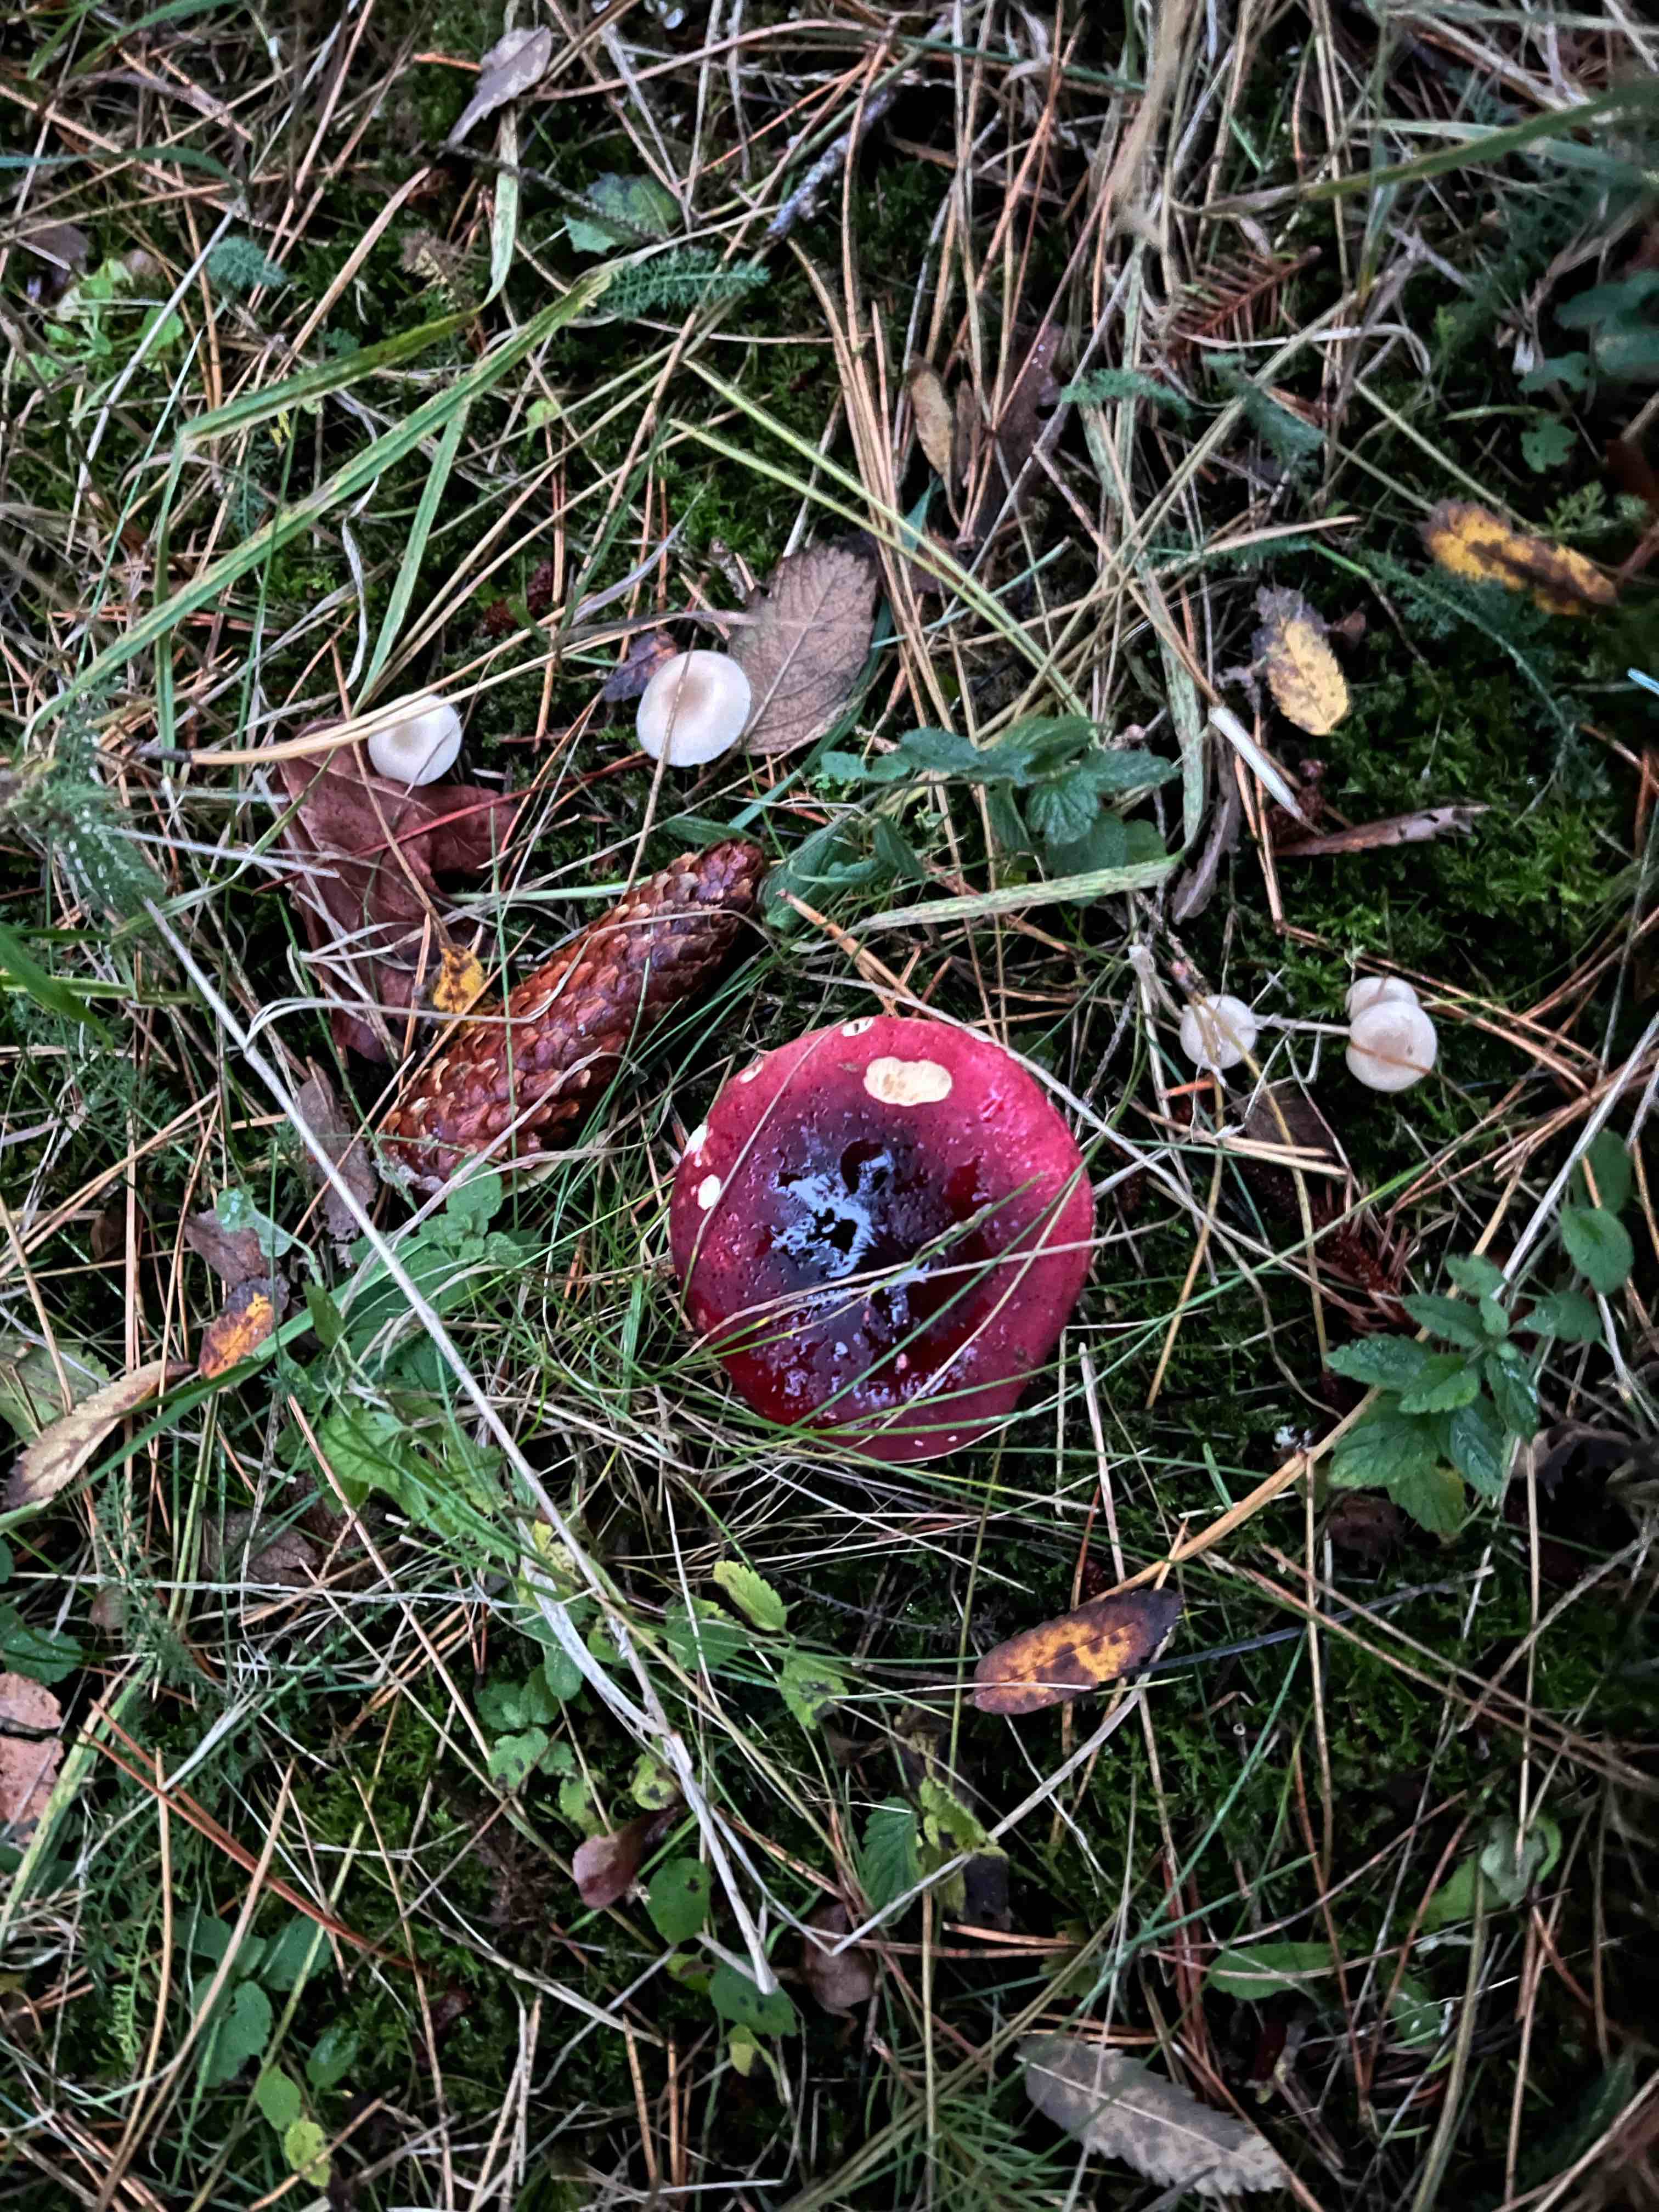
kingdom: Fungi
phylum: Basidiomycota
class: Agaricomycetes
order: Russulales
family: Russulaceae
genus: Russula
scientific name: Russula xerampelina
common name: hummer-skørhat
